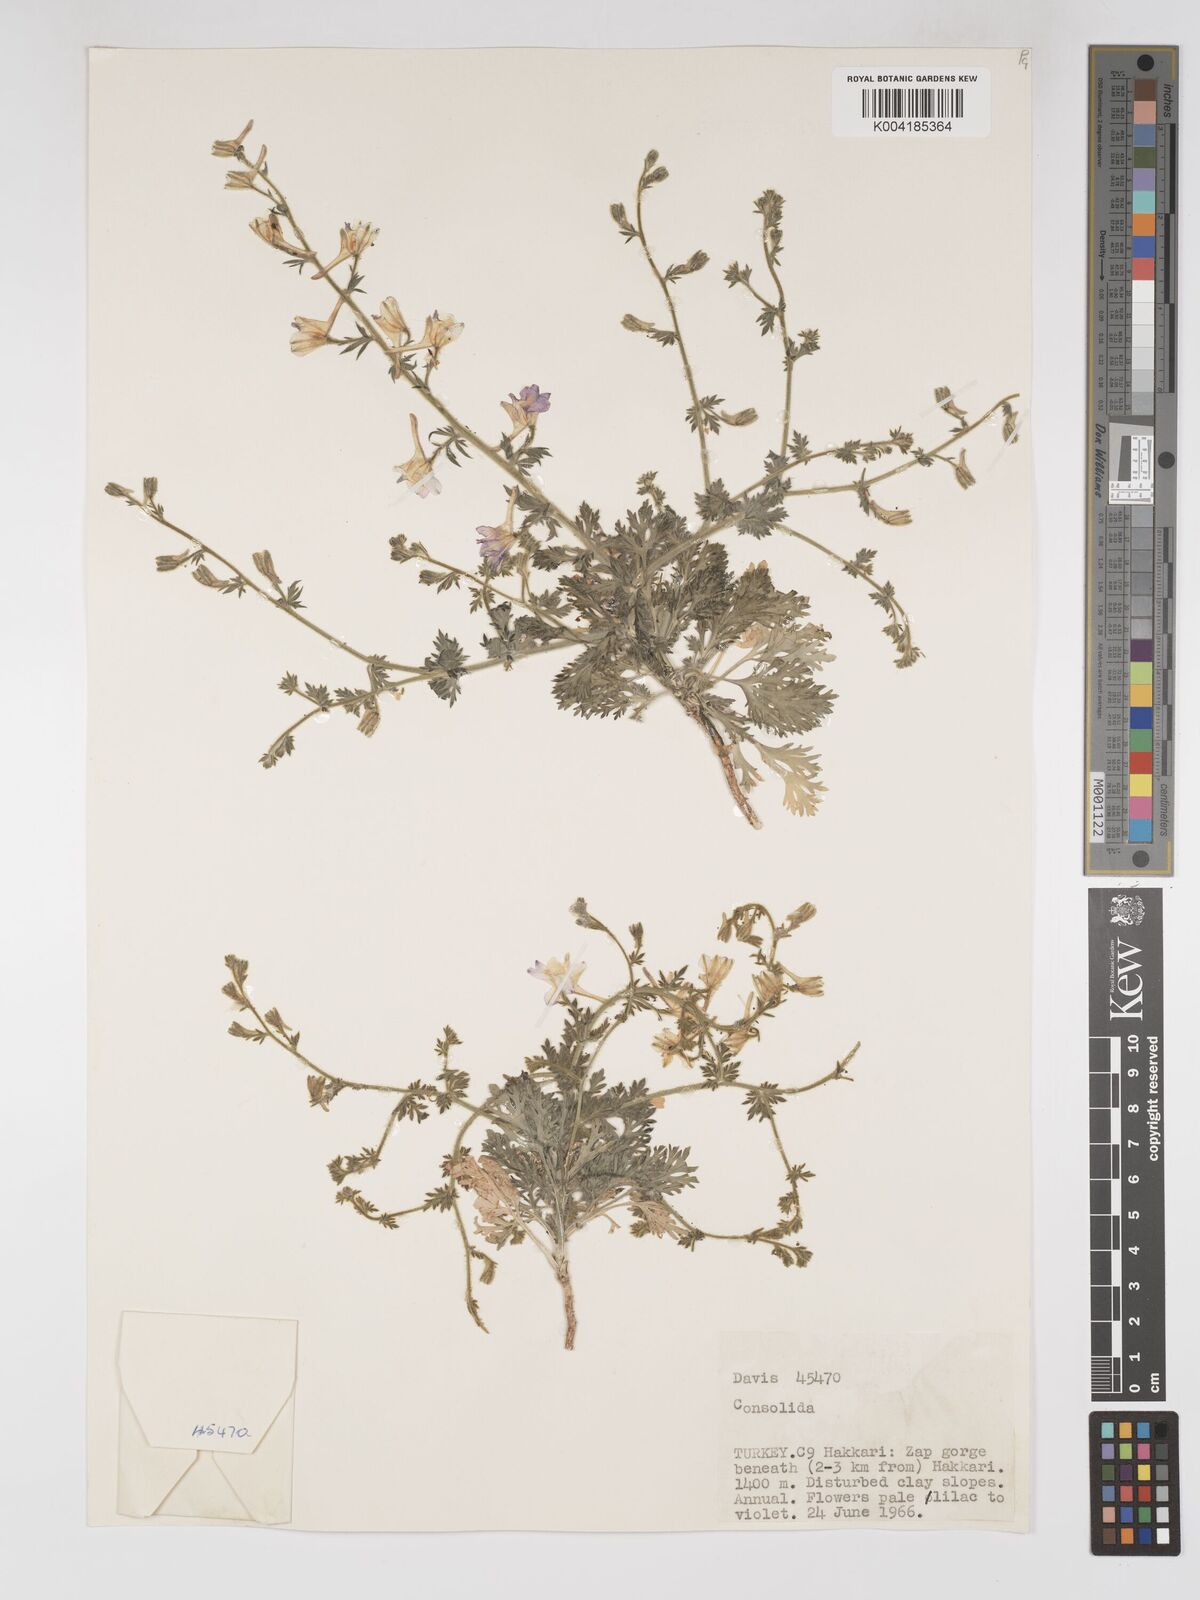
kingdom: Plantae
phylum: Tracheophyta
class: Magnoliopsida
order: Ranunculales
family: Ranunculaceae
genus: Delphinium
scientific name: Delphinium
